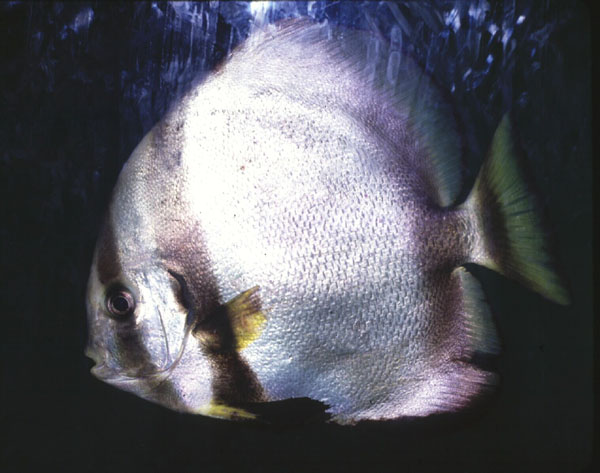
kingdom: Animalia
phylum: Chordata
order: Perciformes
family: Ephippidae
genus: Platax
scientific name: Platax
